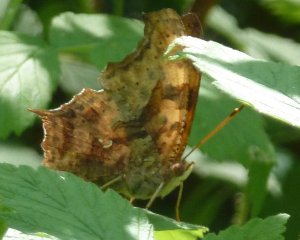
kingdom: Animalia
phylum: Arthropoda
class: Insecta
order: Lepidoptera
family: Nymphalidae
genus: Polygonia
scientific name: Polygonia interrogationis
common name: Question Mark
